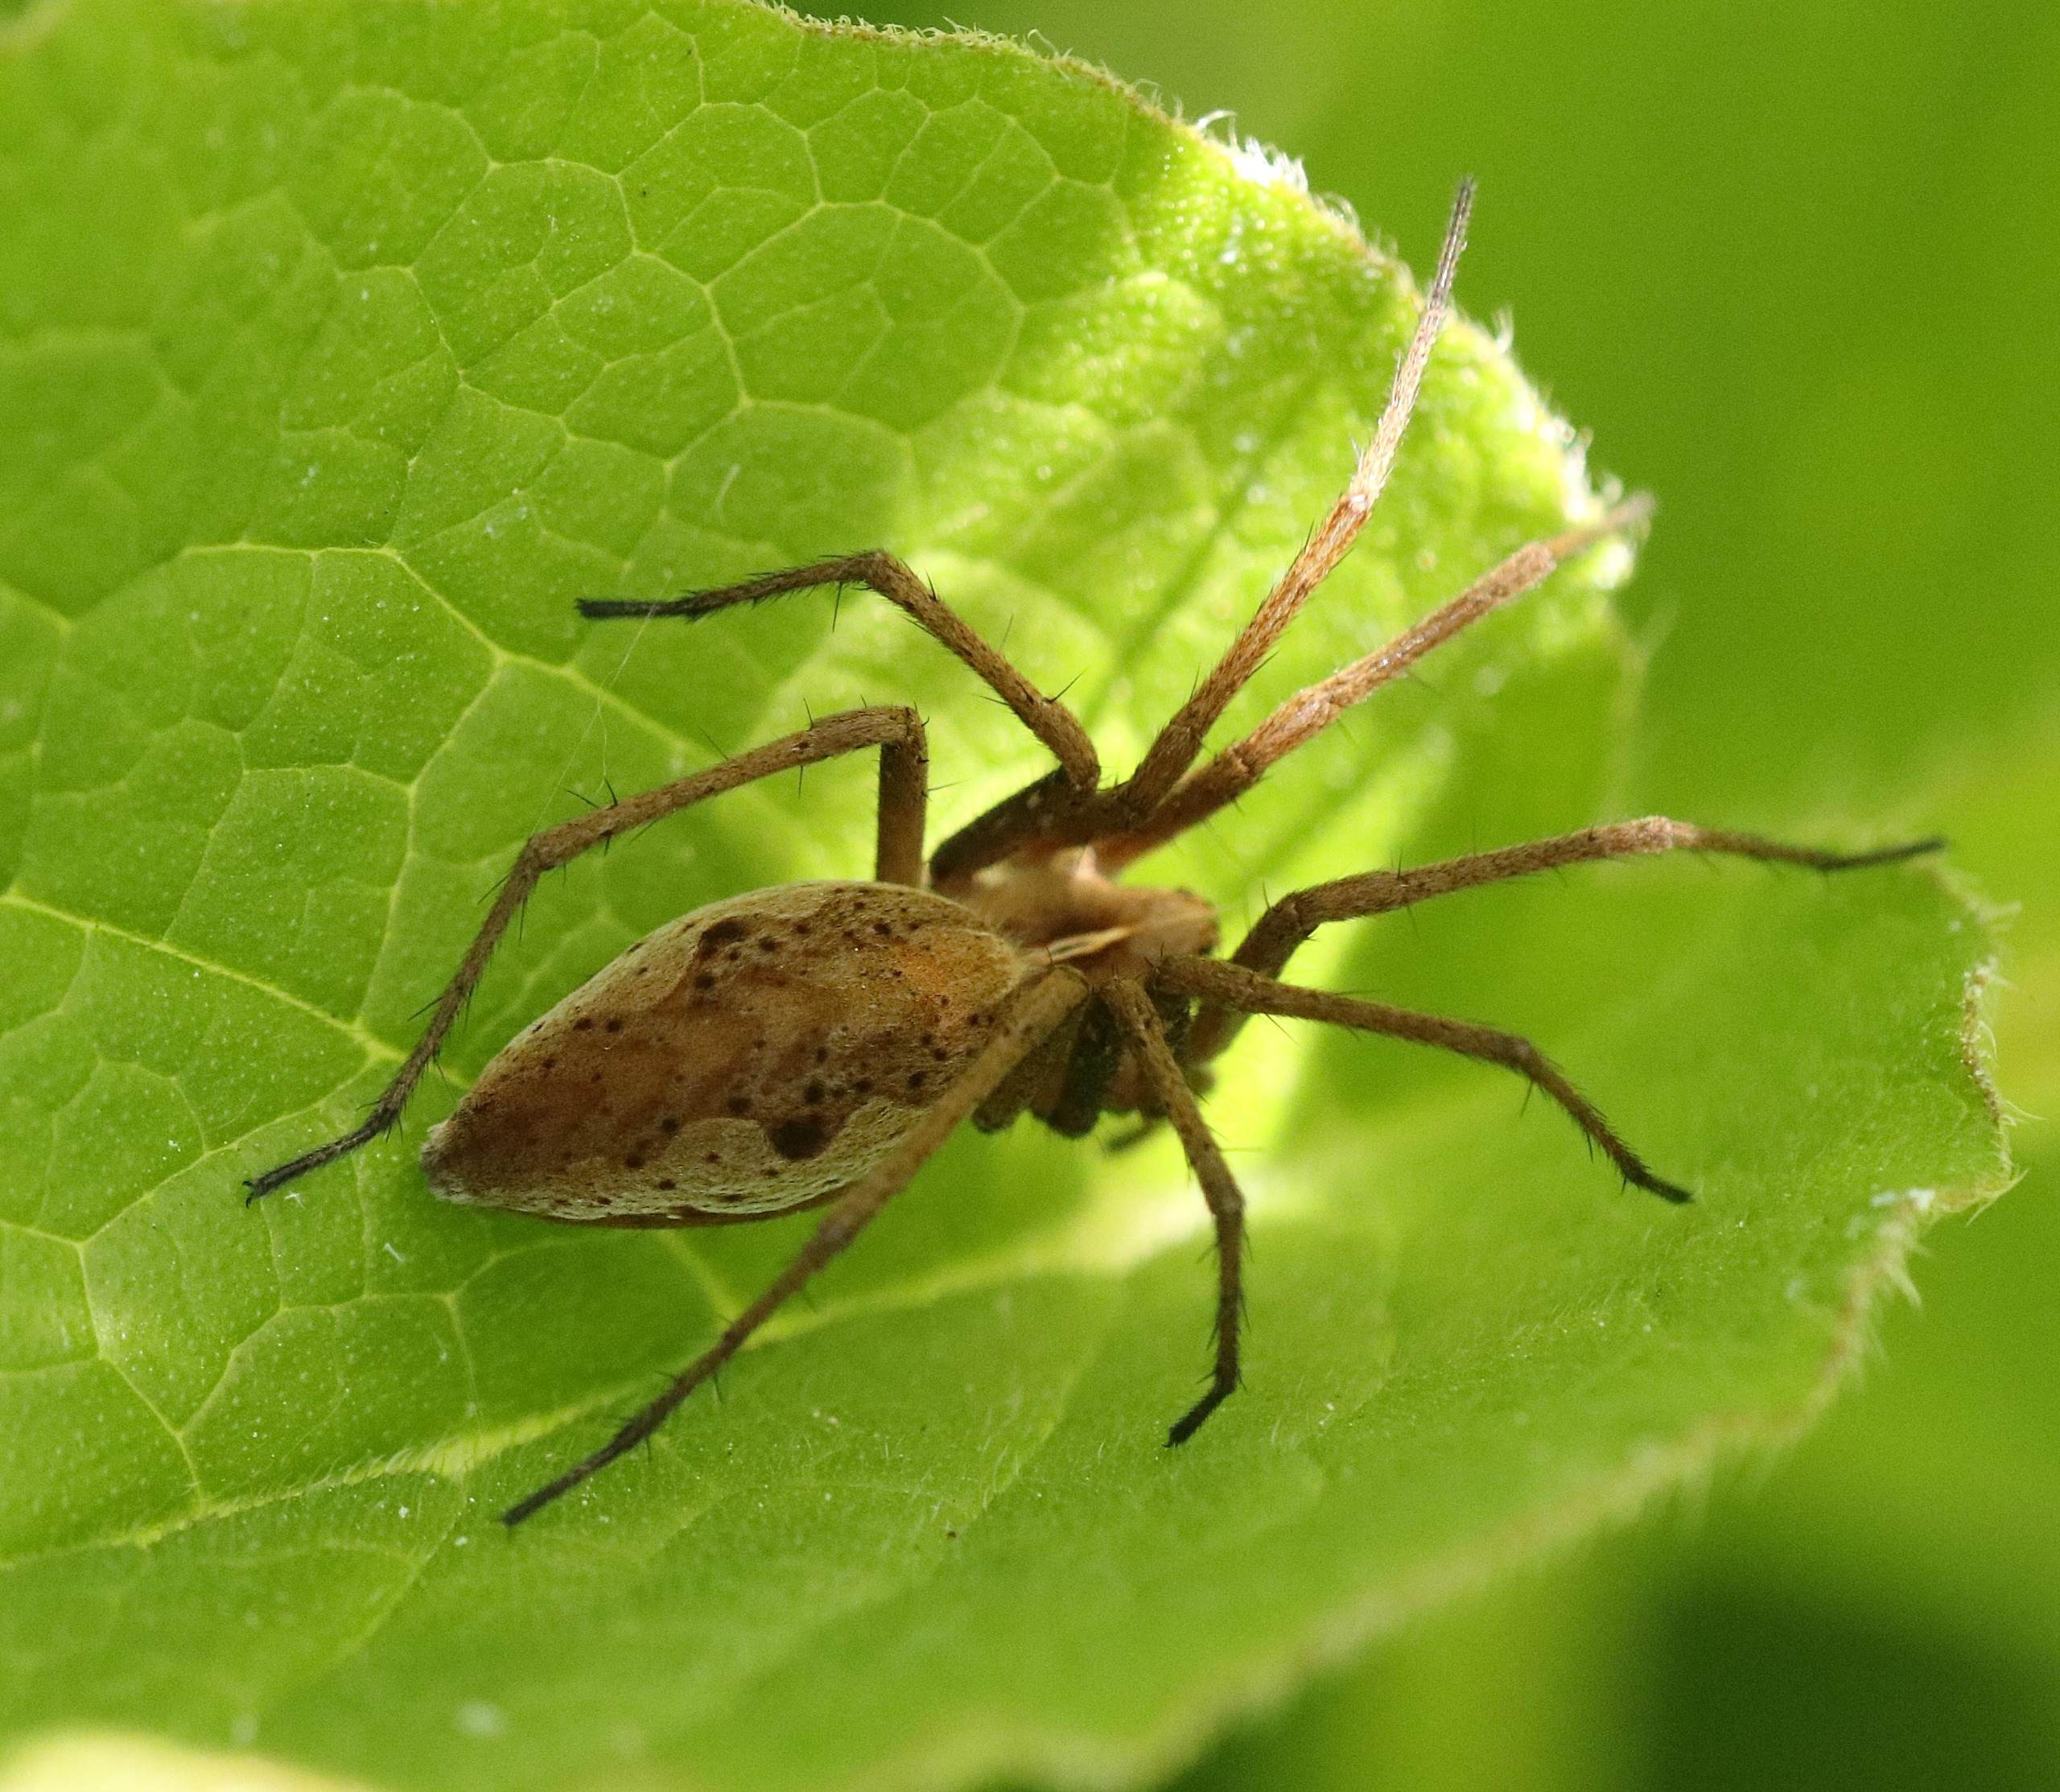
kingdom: Animalia
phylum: Arthropoda
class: Arachnida
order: Araneae
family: Pisauridae
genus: Pisaura
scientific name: Pisaura mirabilis
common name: Almindelig rovedderkop
